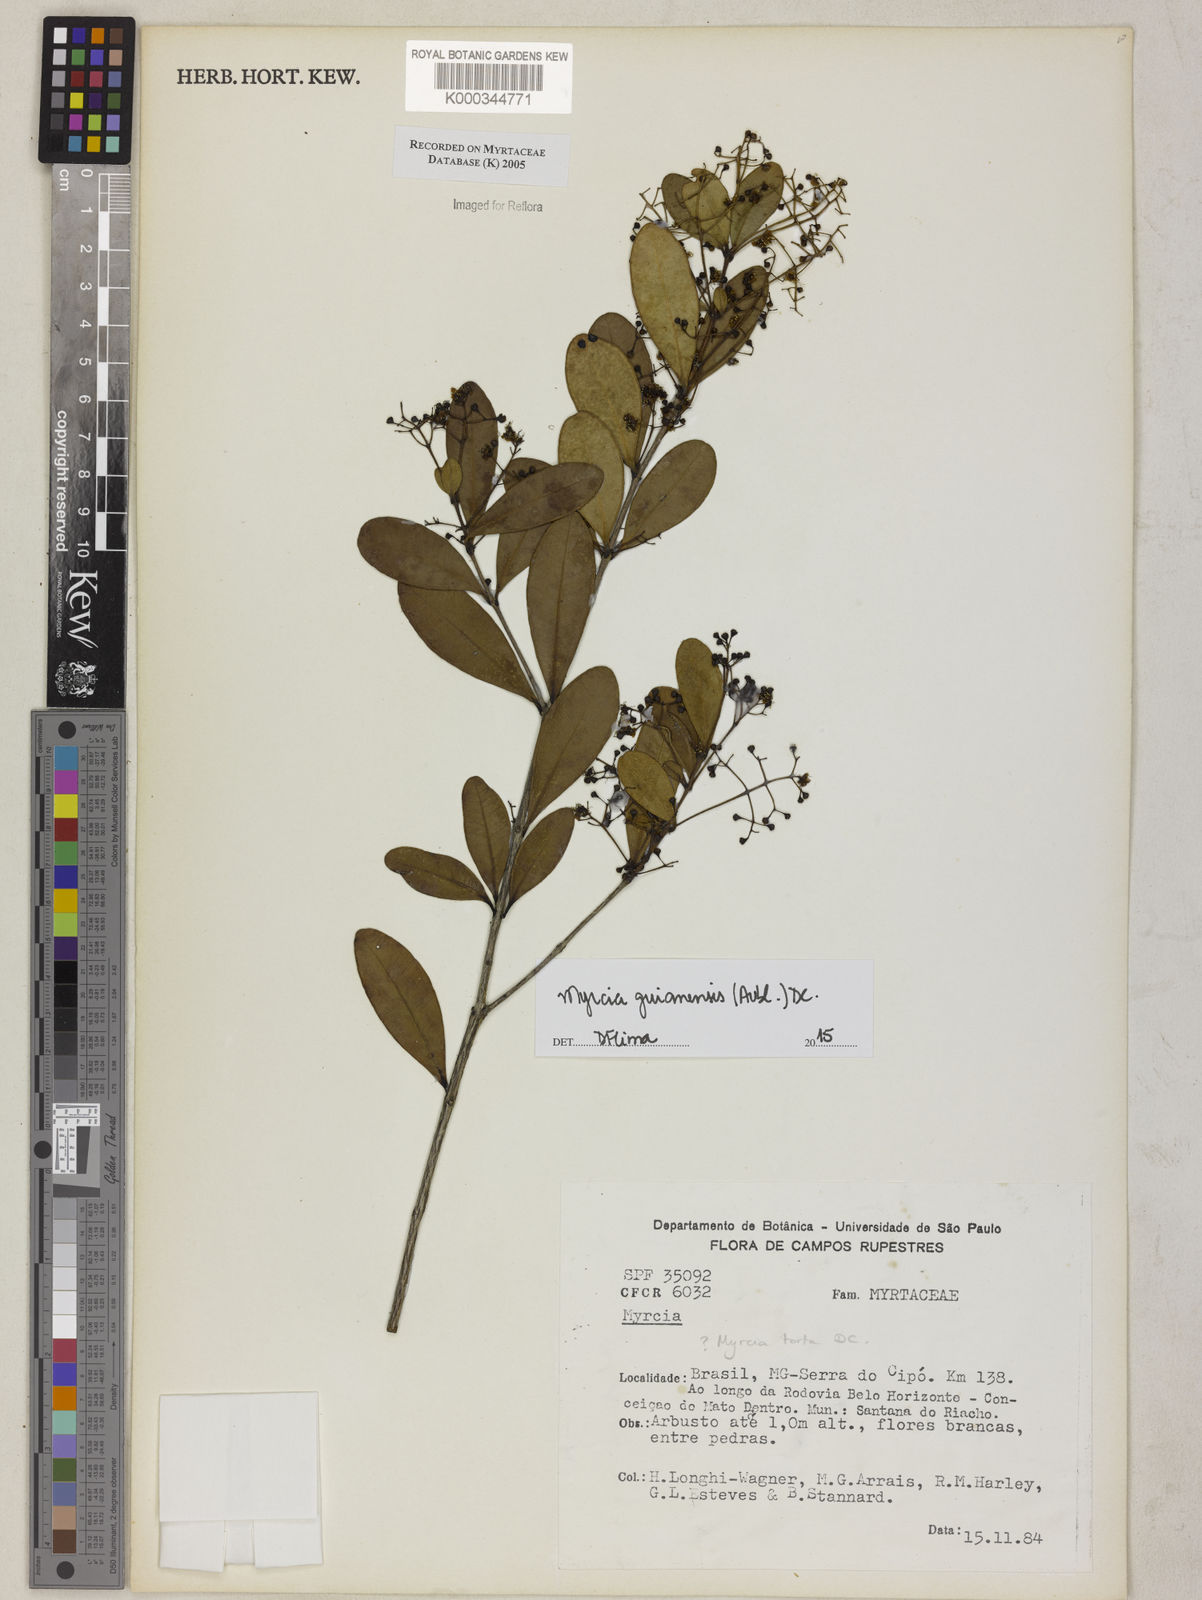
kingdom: Plantae
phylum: Tracheophyta
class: Magnoliopsida
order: Myrtales
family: Myrtaceae
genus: Myrcia
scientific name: Myrcia guianensis
